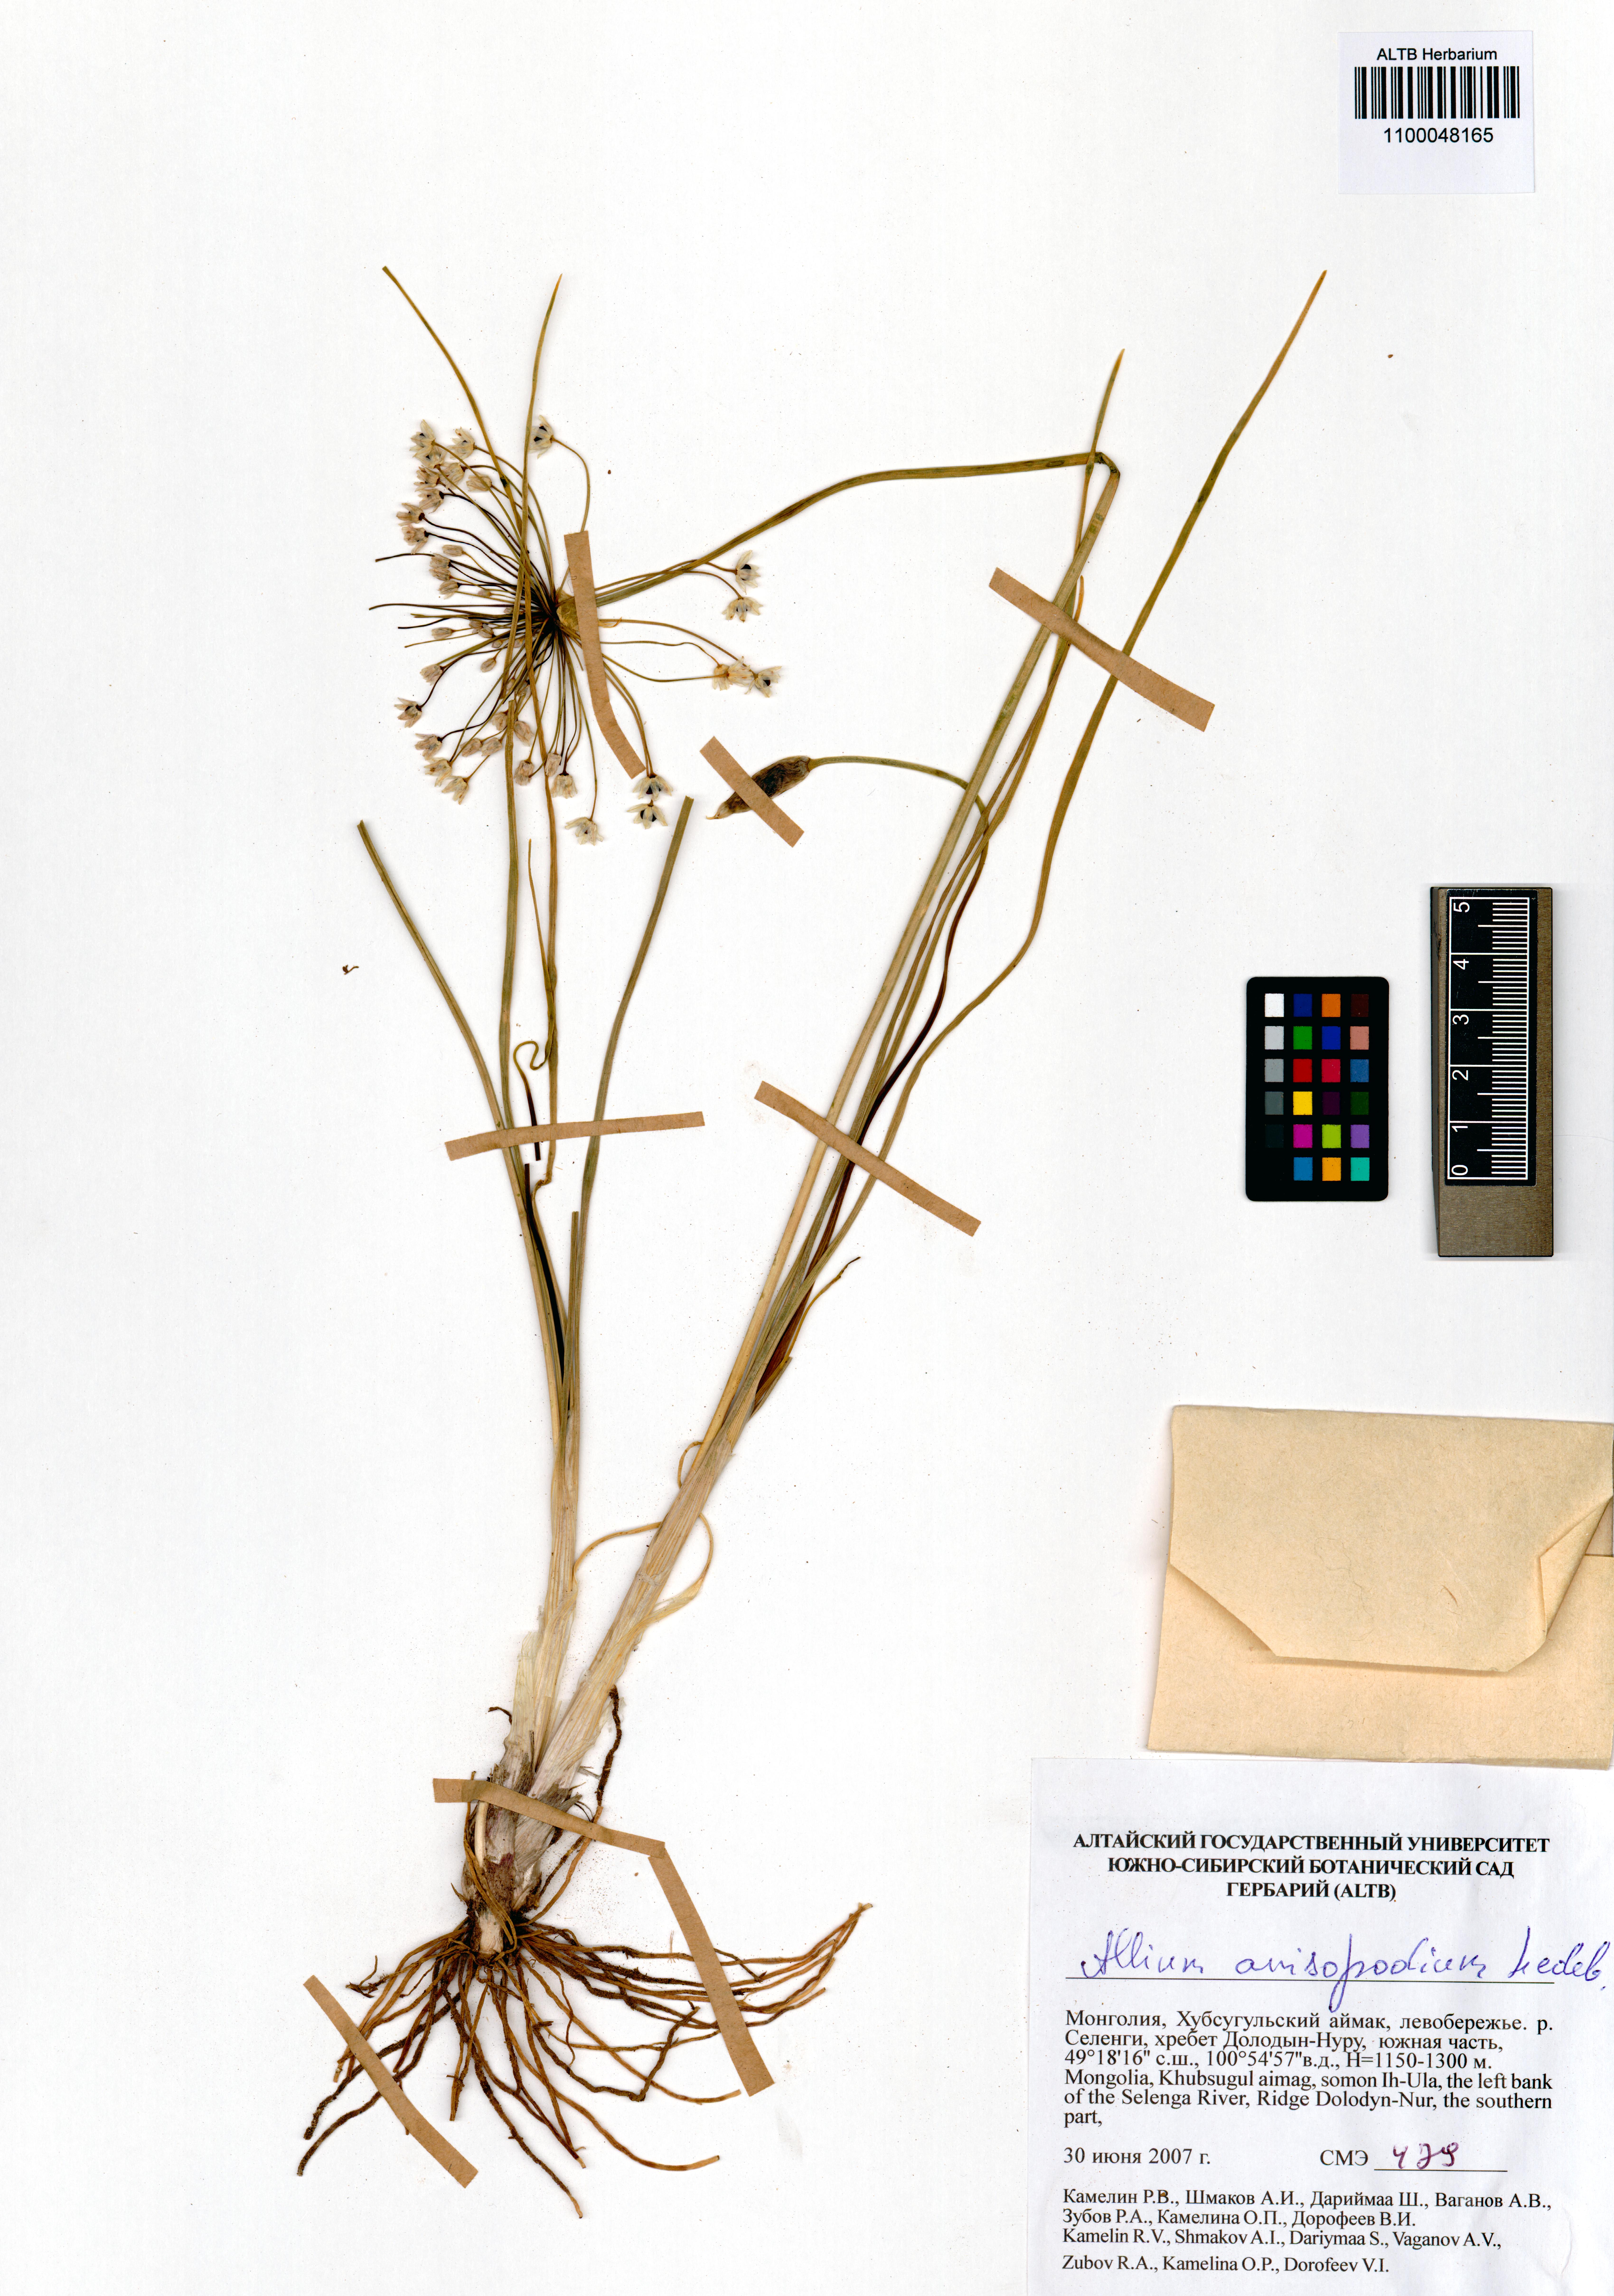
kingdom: Plantae
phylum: Tracheophyta
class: Liliopsida
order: Asparagales
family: Amaryllidaceae
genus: Allium
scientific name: Allium anisopodium
